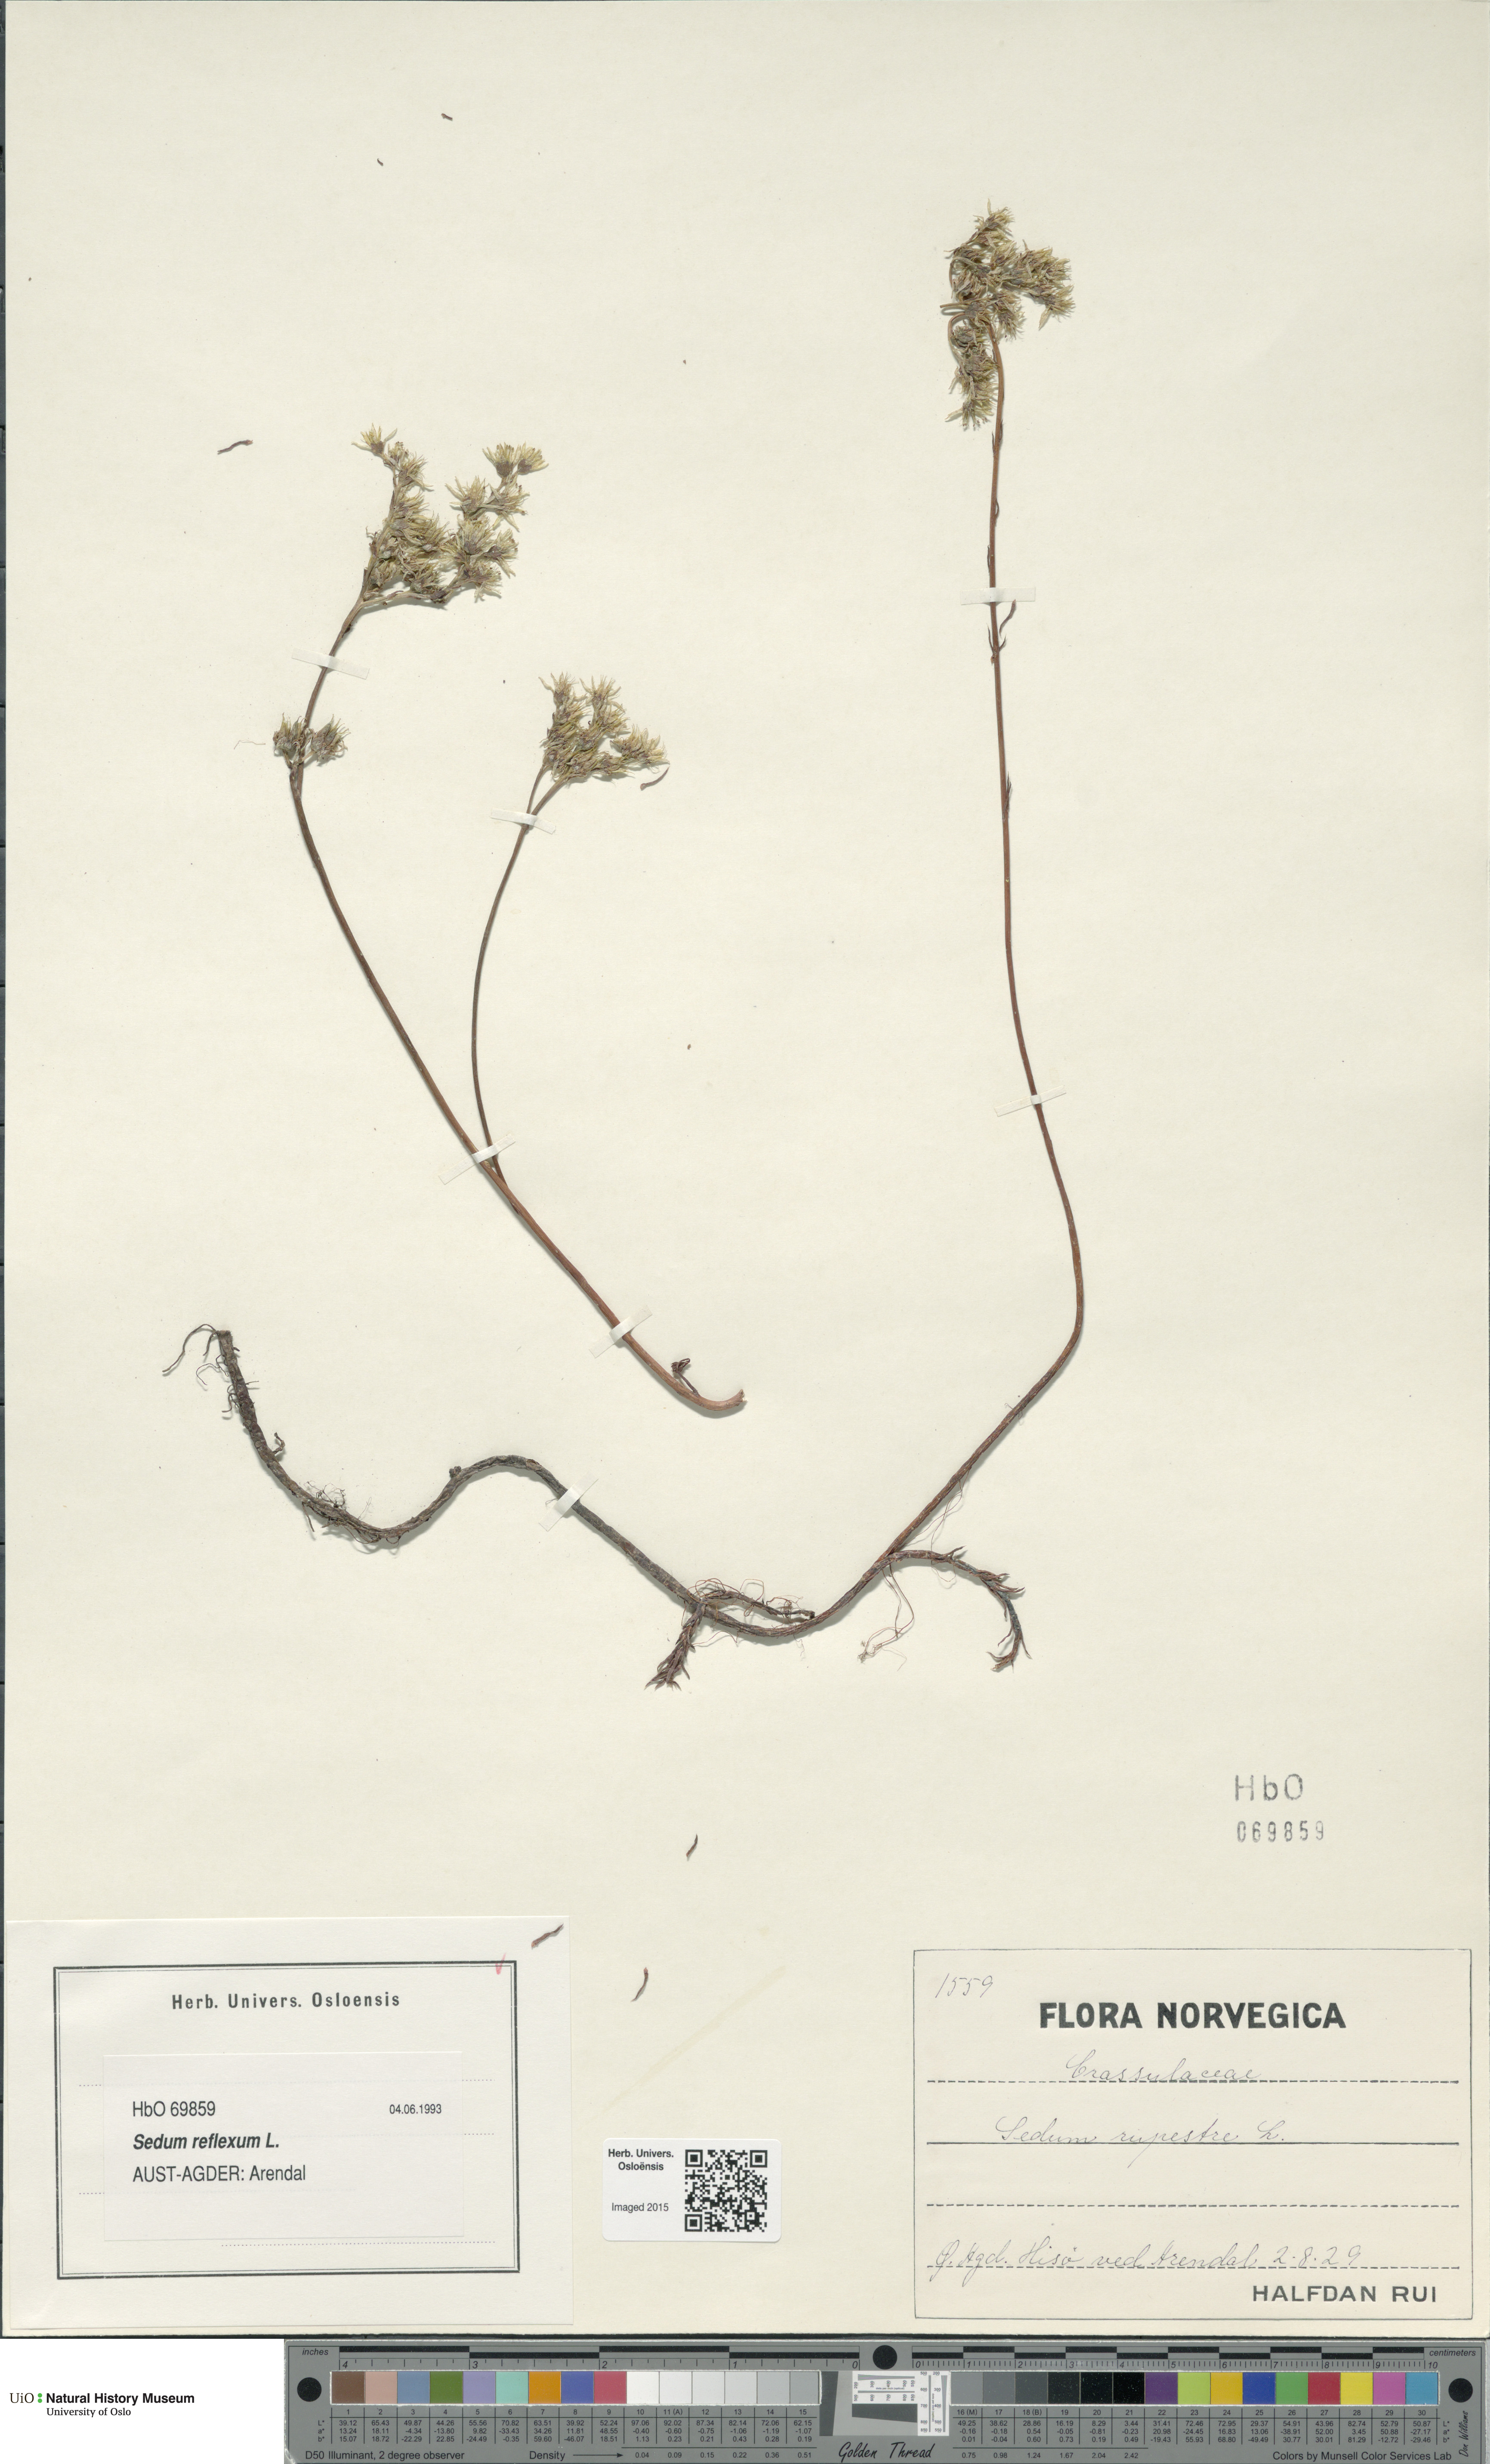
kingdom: Plantae
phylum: Tracheophyta
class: Magnoliopsida
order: Saxifragales
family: Crassulaceae
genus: Petrosedum
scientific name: Petrosedum rupestre
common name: Jenny's stonecrop
